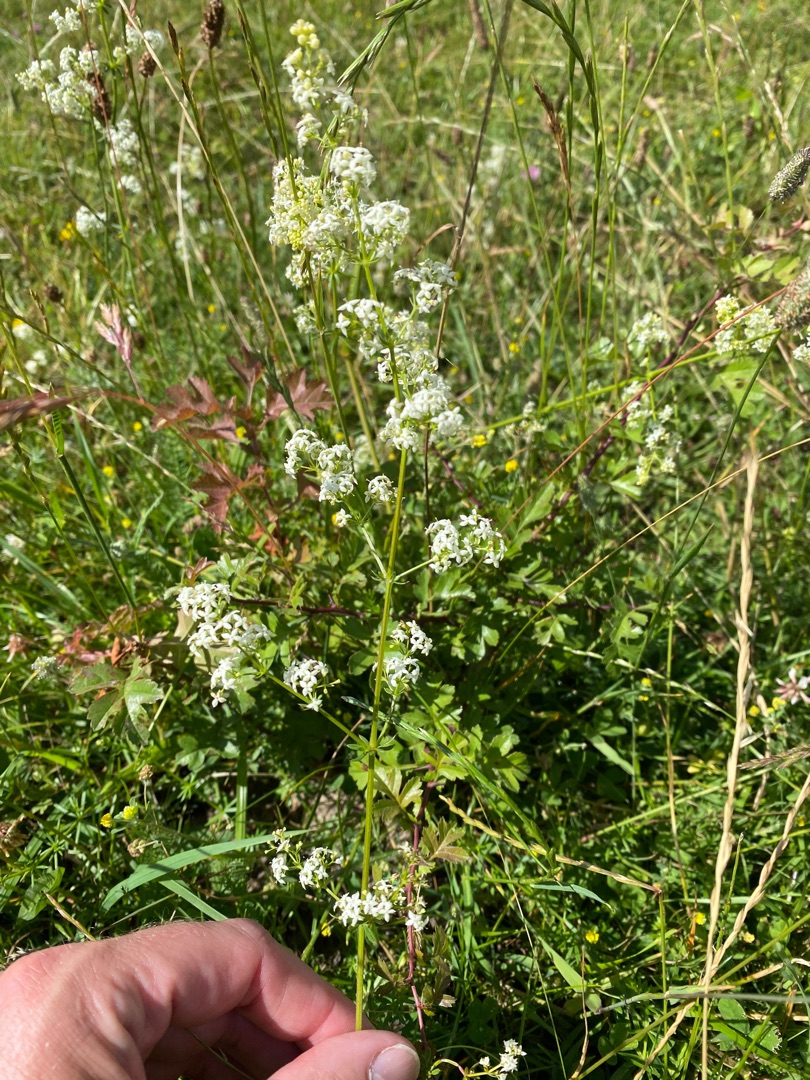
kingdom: Plantae
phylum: Tracheophyta
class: Magnoliopsida
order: Gentianales
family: Rubiaceae
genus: Galium
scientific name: Galium mollugo
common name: Hvid snerre
